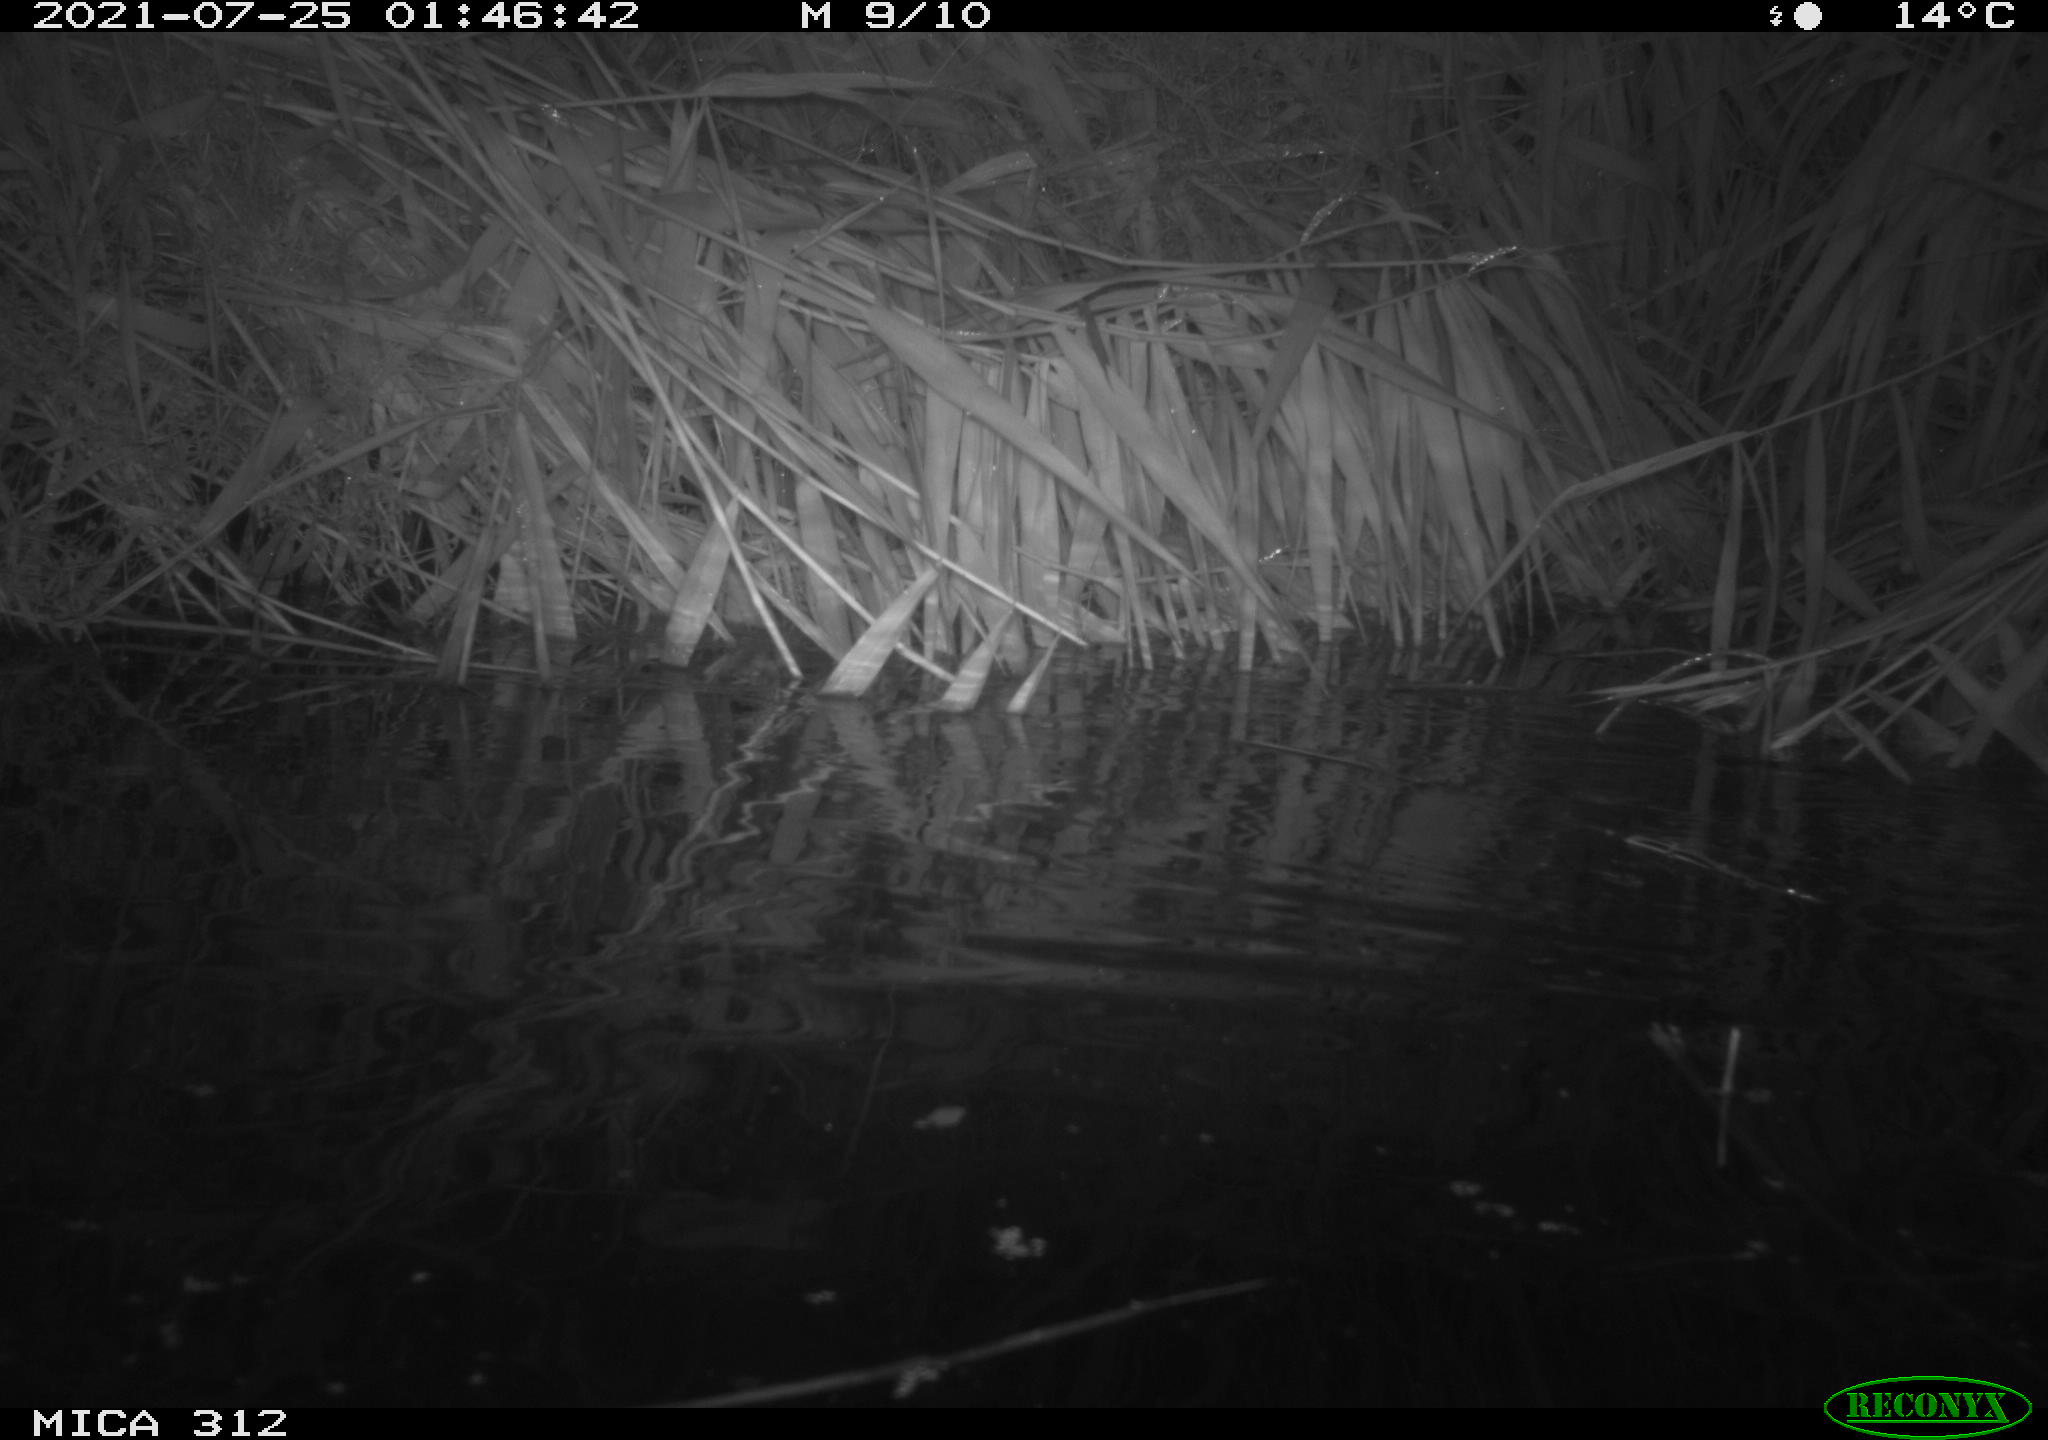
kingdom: Animalia
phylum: Chordata
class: Mammalia
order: Rodentia
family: Cricetidae
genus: Ondatra
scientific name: Ondatra zibethicus
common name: Muskrat
